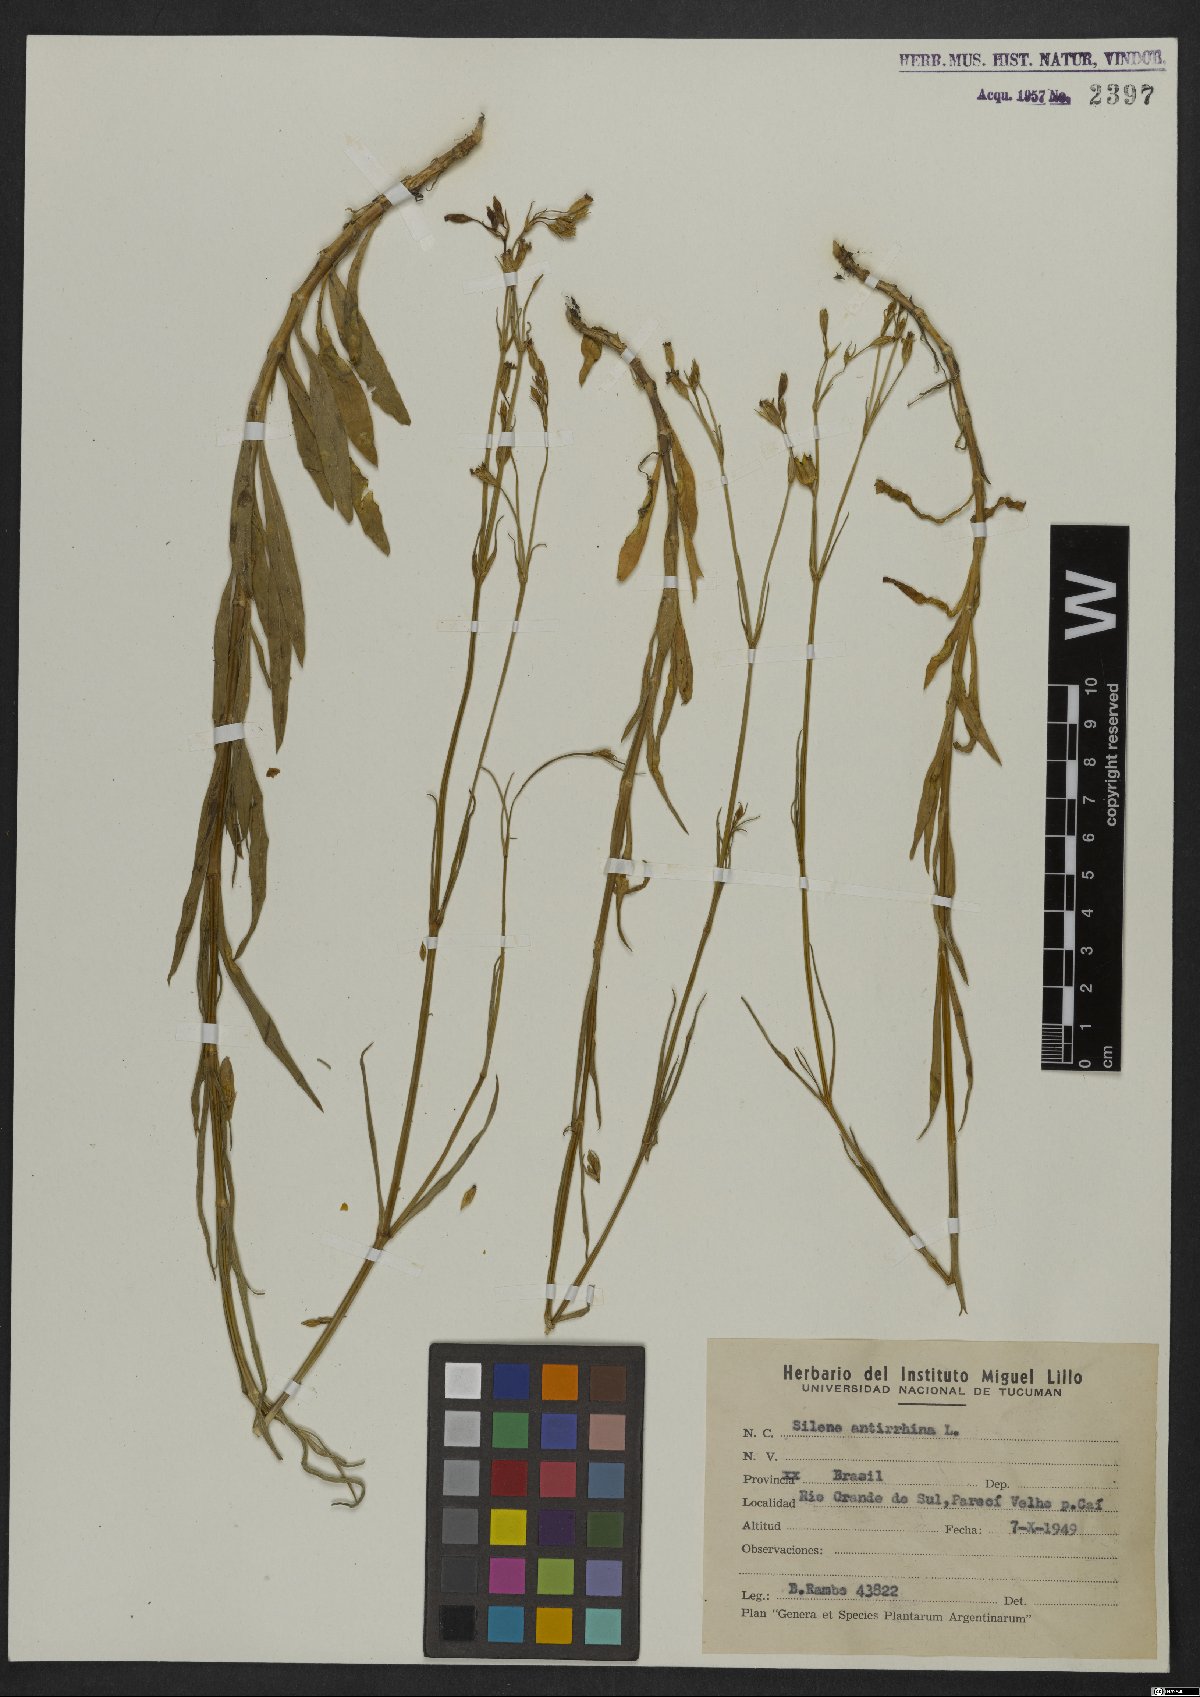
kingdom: Plantae
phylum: Tracheophyta
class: Magnoliopsida
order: Caryophyllales
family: Caryophyllaceae
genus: Silene
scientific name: Silene antirrhina
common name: Sleepy catchfly
